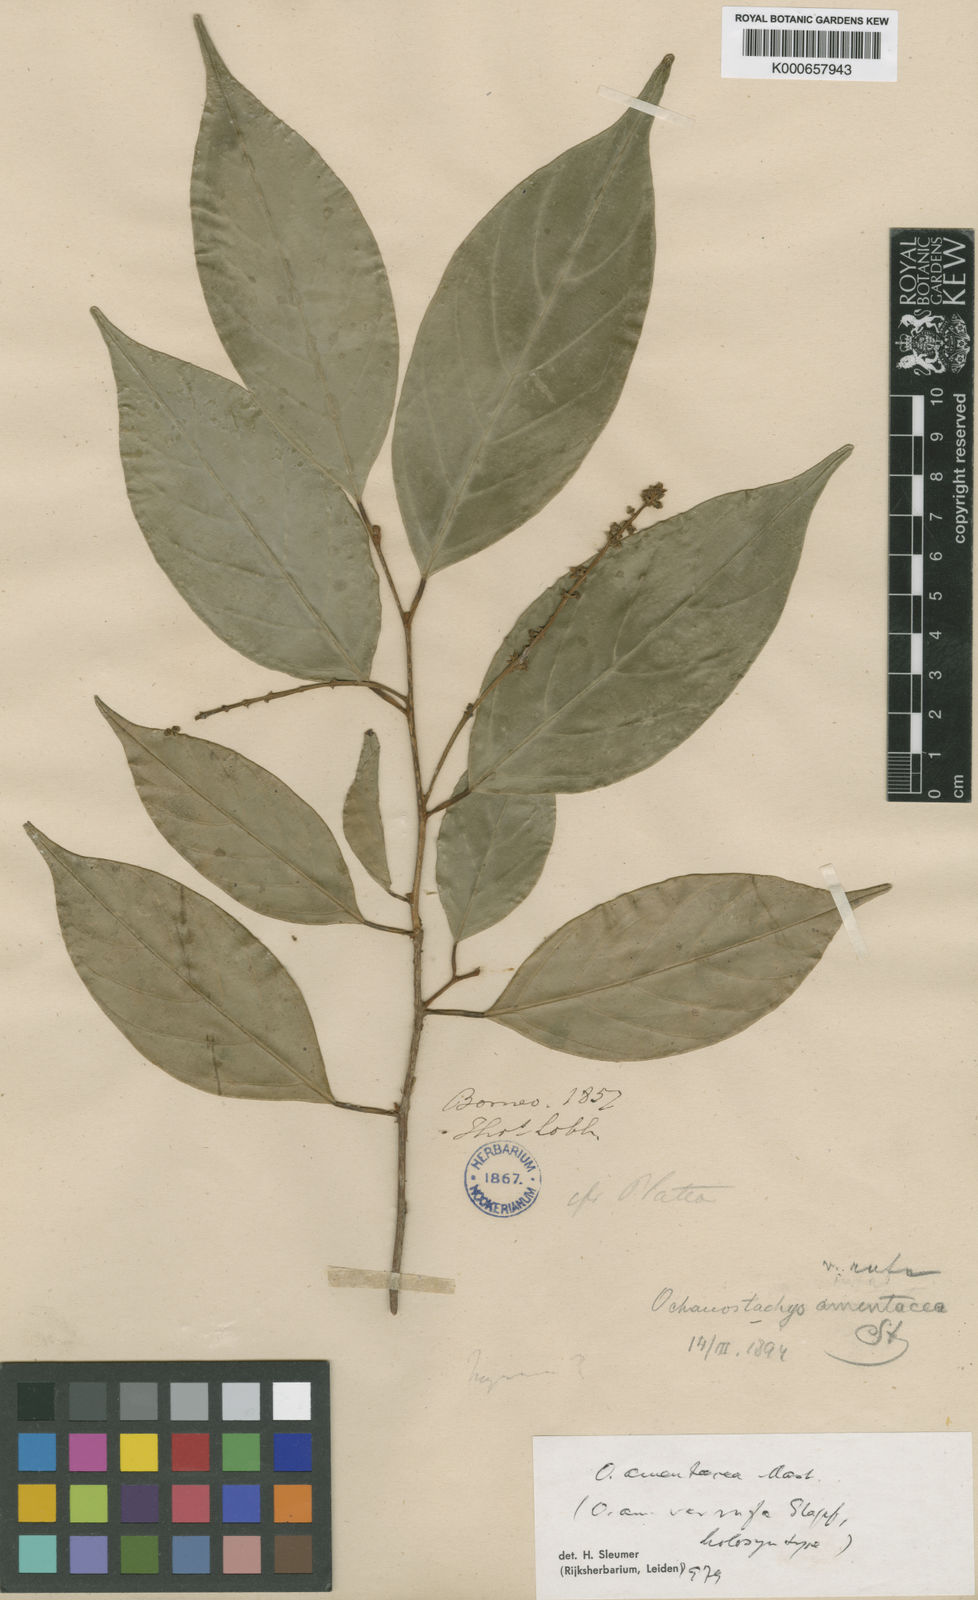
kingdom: Plantae
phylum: Tracheophyta
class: Magnoliopsida
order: Santalales
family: Coulaceae
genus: Ochanostachys
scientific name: Ochanostachys amentacea
